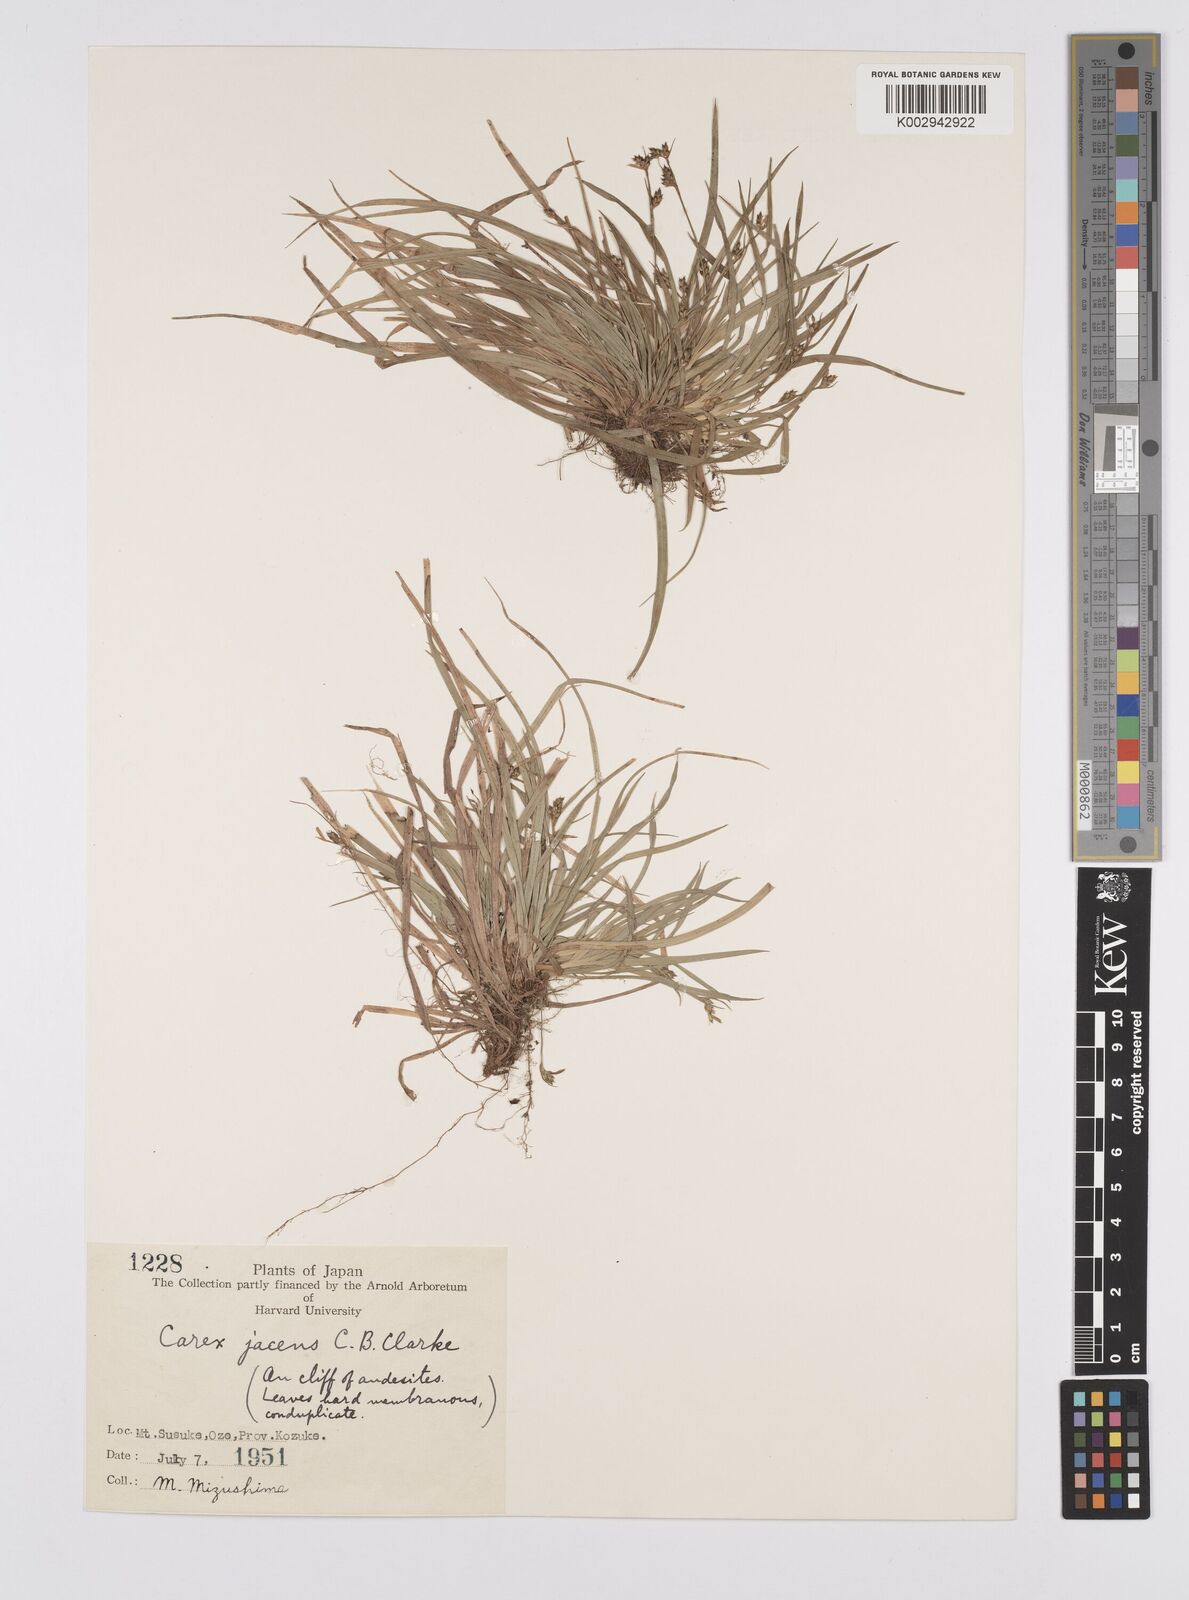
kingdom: Plantae
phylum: Tracheophyta
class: Liliopsida
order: Poales
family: Cyperaceae
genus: Carex
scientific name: Carex jacens
